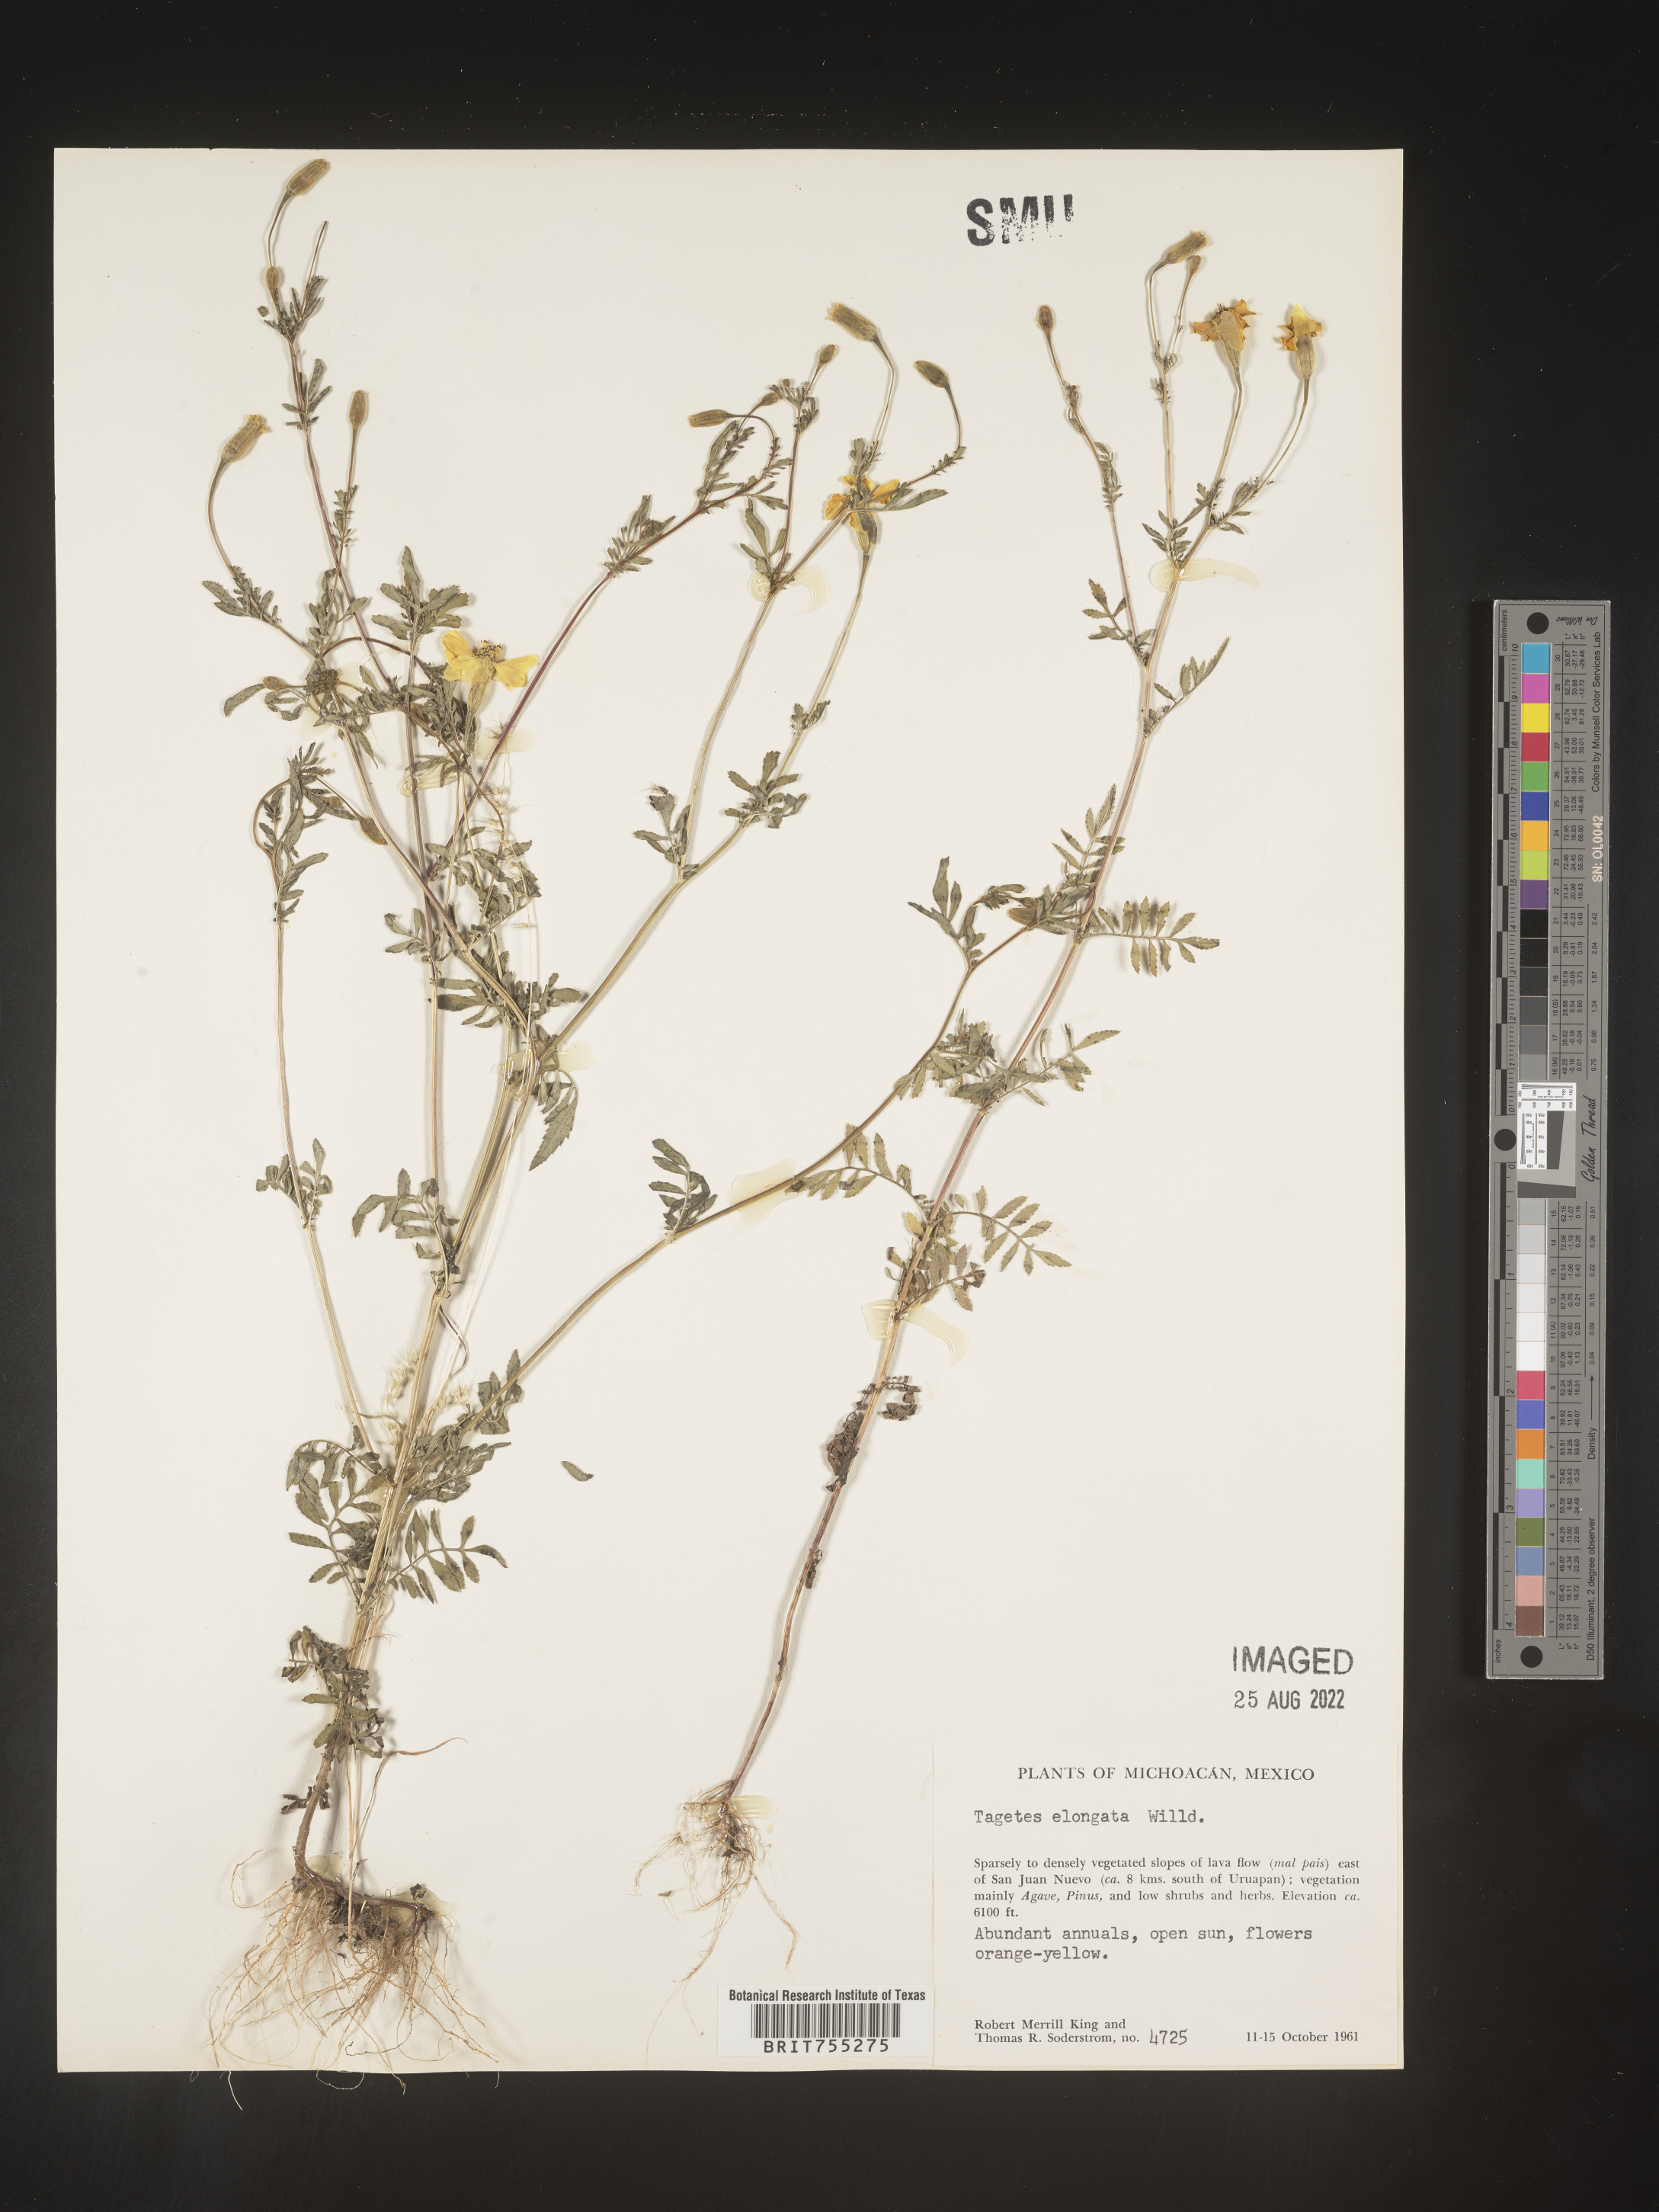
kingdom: Plantae
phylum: Tracheophyta
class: Magnoliopsida
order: Asterales
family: Asteraceae
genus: Tagetes
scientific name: Tagetes
